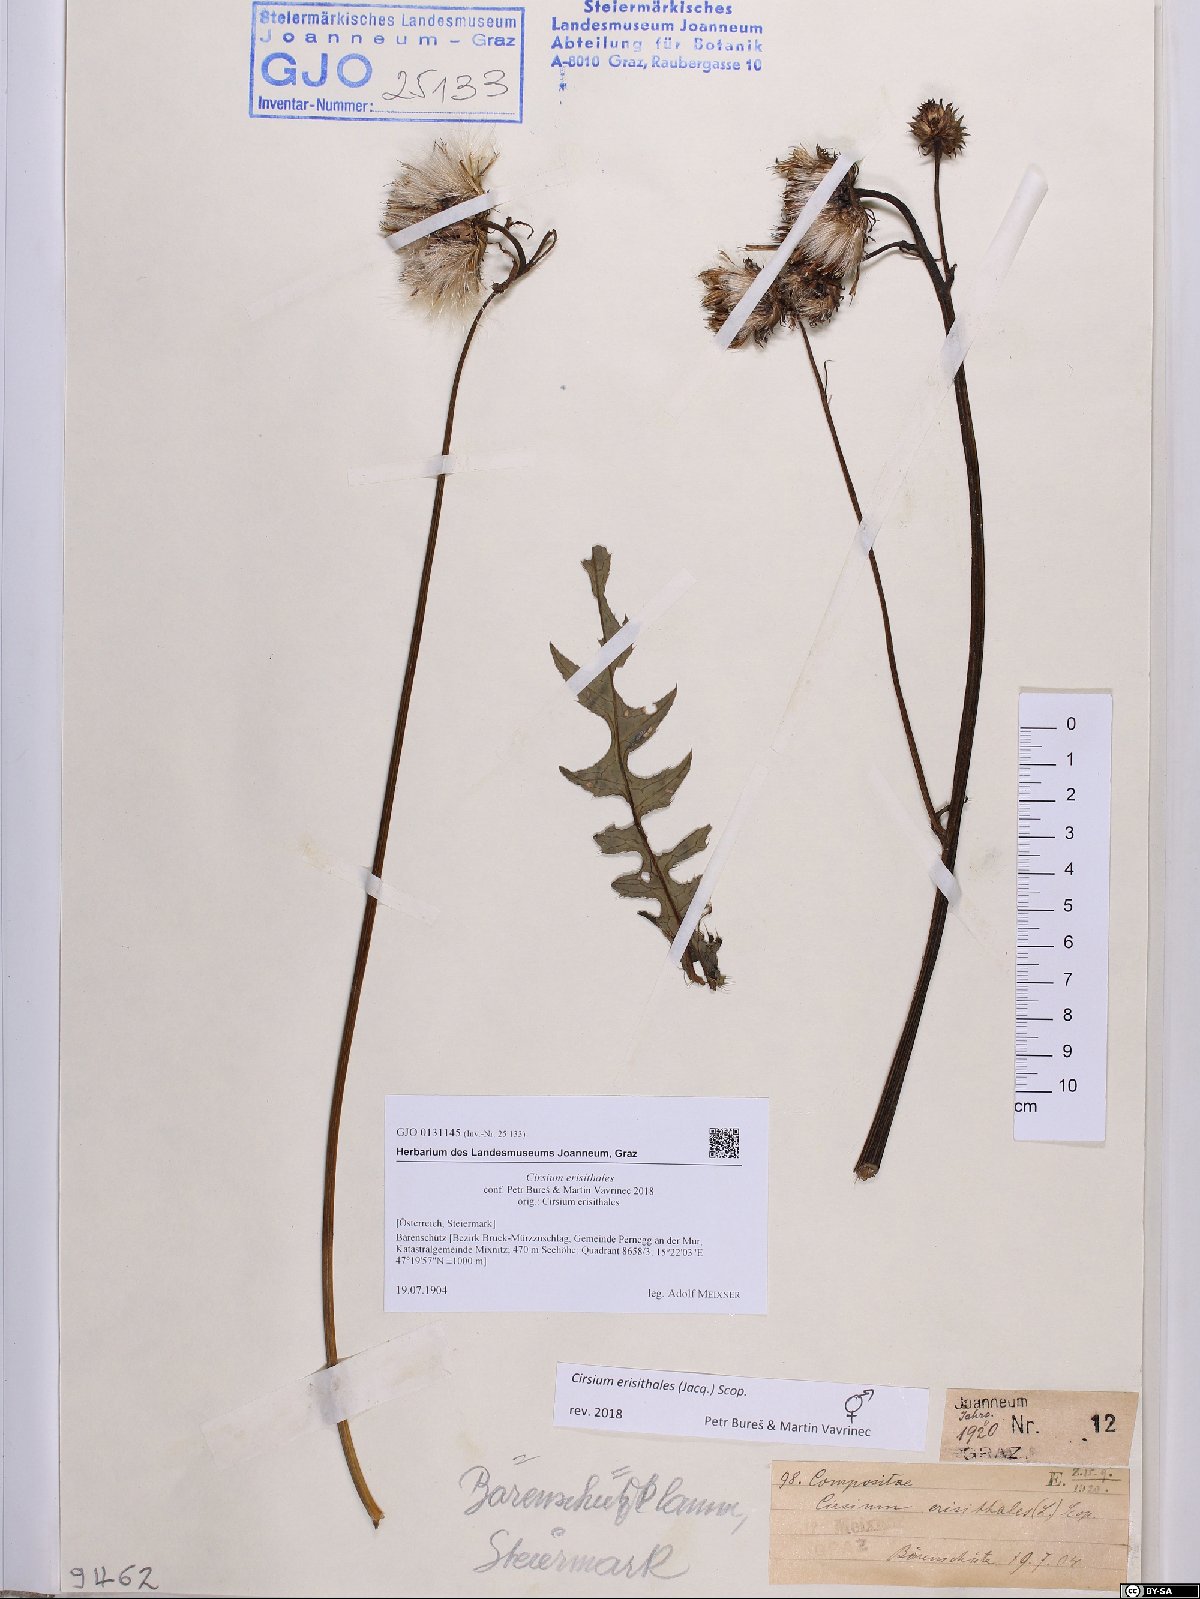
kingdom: Plantae
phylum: Tracheophyta
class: Magnoliopsida
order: Asterales
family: Asteraceae
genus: Cirsium
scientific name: Cirsium erisithales
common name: Yellow thistle
